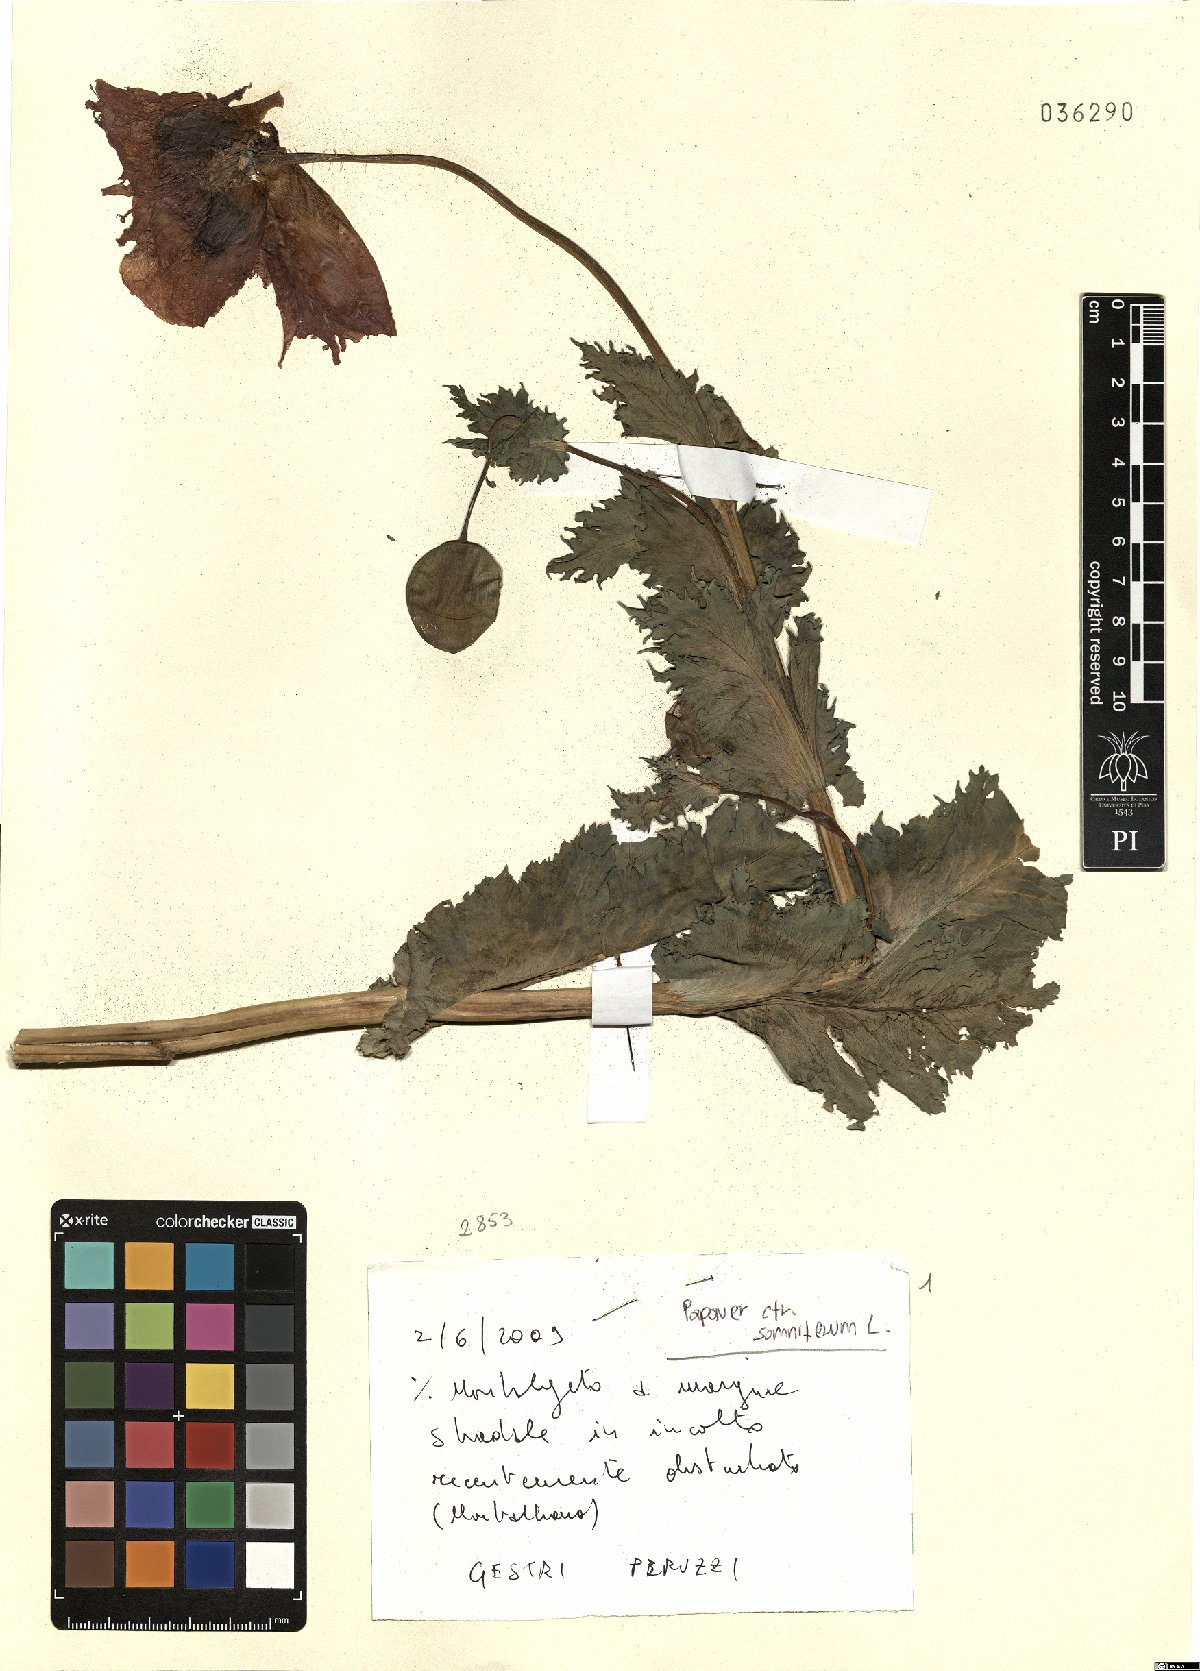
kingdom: Plantae
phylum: Tracheophyta
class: Magnoliopsida
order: Ranunculales
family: Papaveraceae
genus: Papaver
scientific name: Papaver somniferum
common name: Opium poppy
